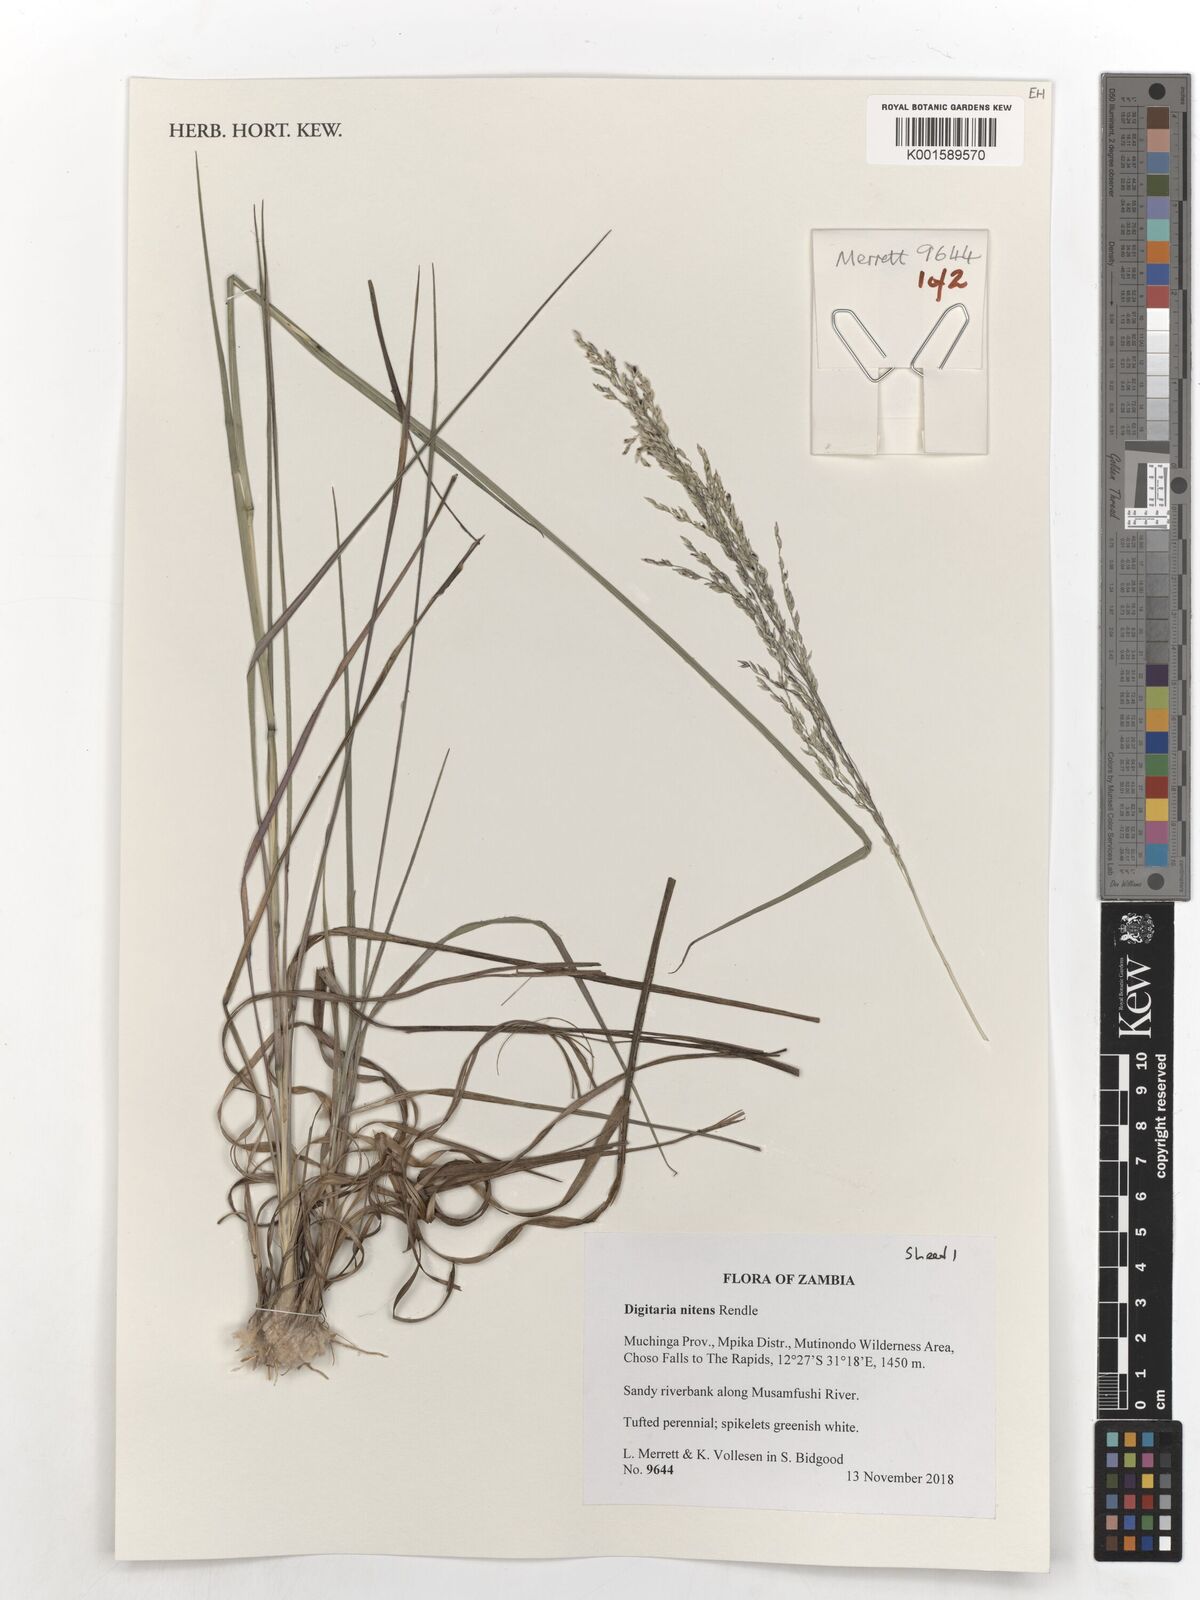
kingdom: Plantae
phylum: Tracheophyta
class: Liliopsida
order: Poales
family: Poaceae
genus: Digitaria
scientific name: Digitaria flaccida
